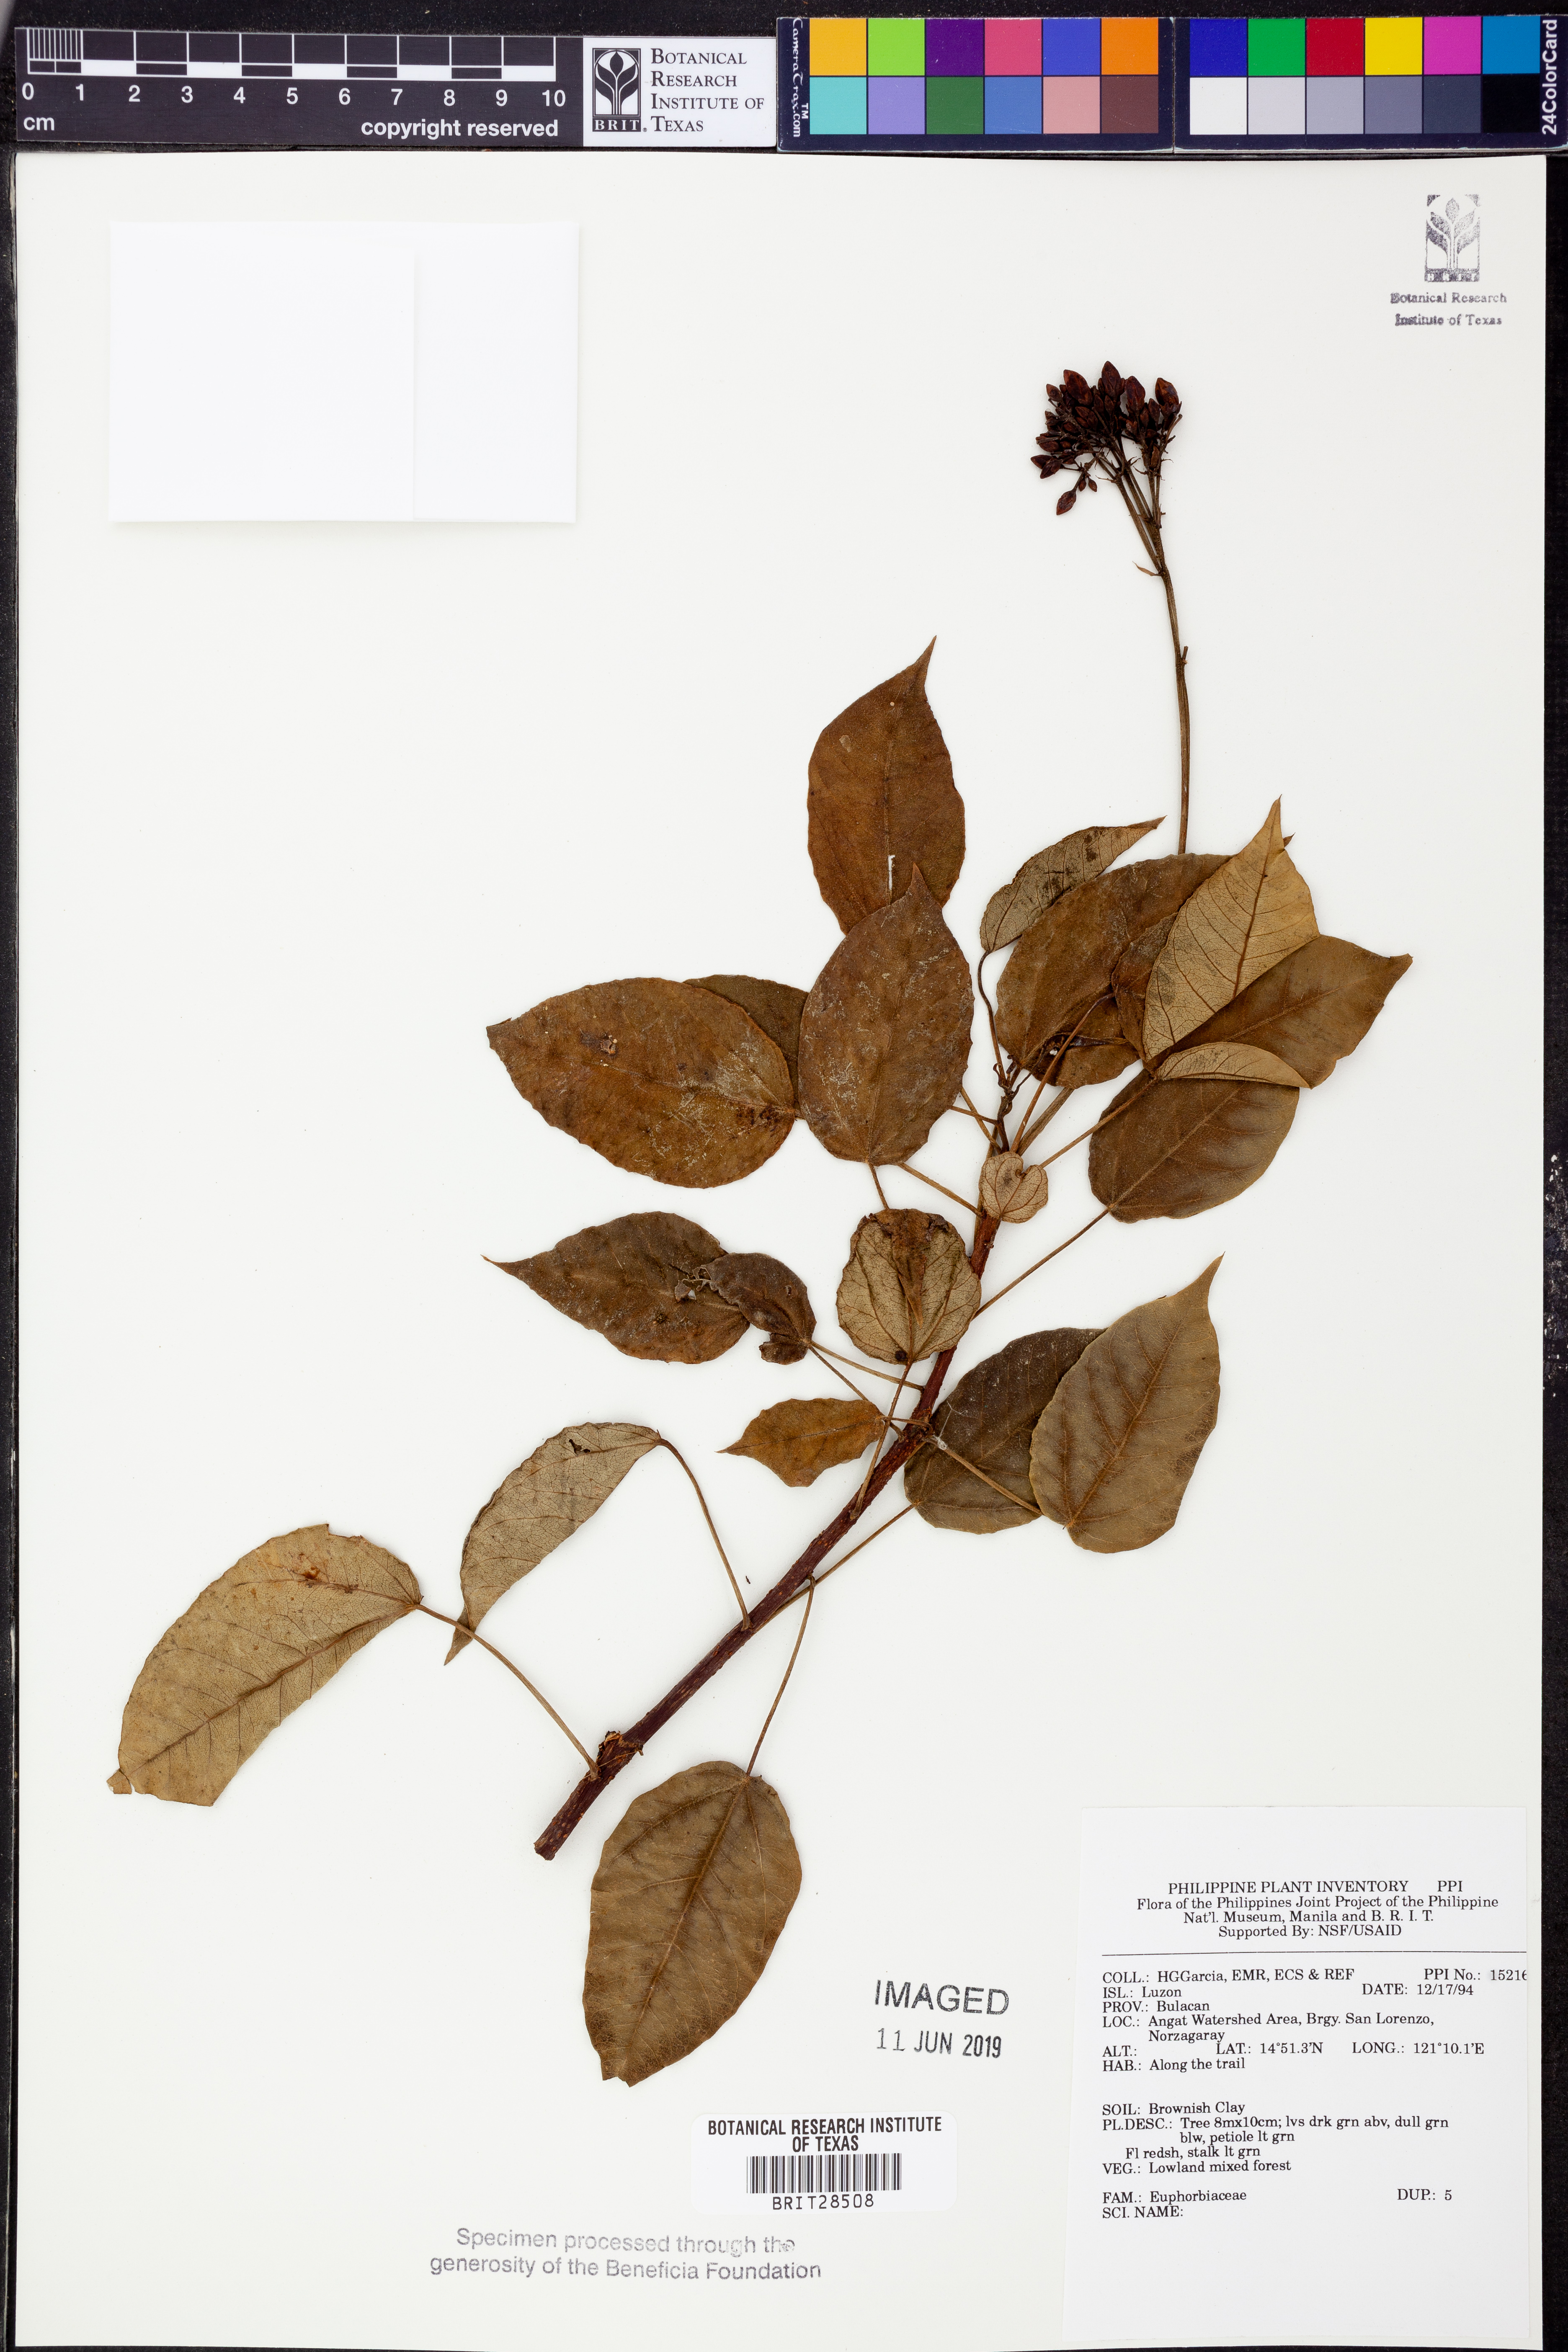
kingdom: Plantae
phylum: Tracheophyta
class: Magnoliopsida
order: Malpighiales
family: Euphorbiaceae
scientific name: Euphorbiaceae
